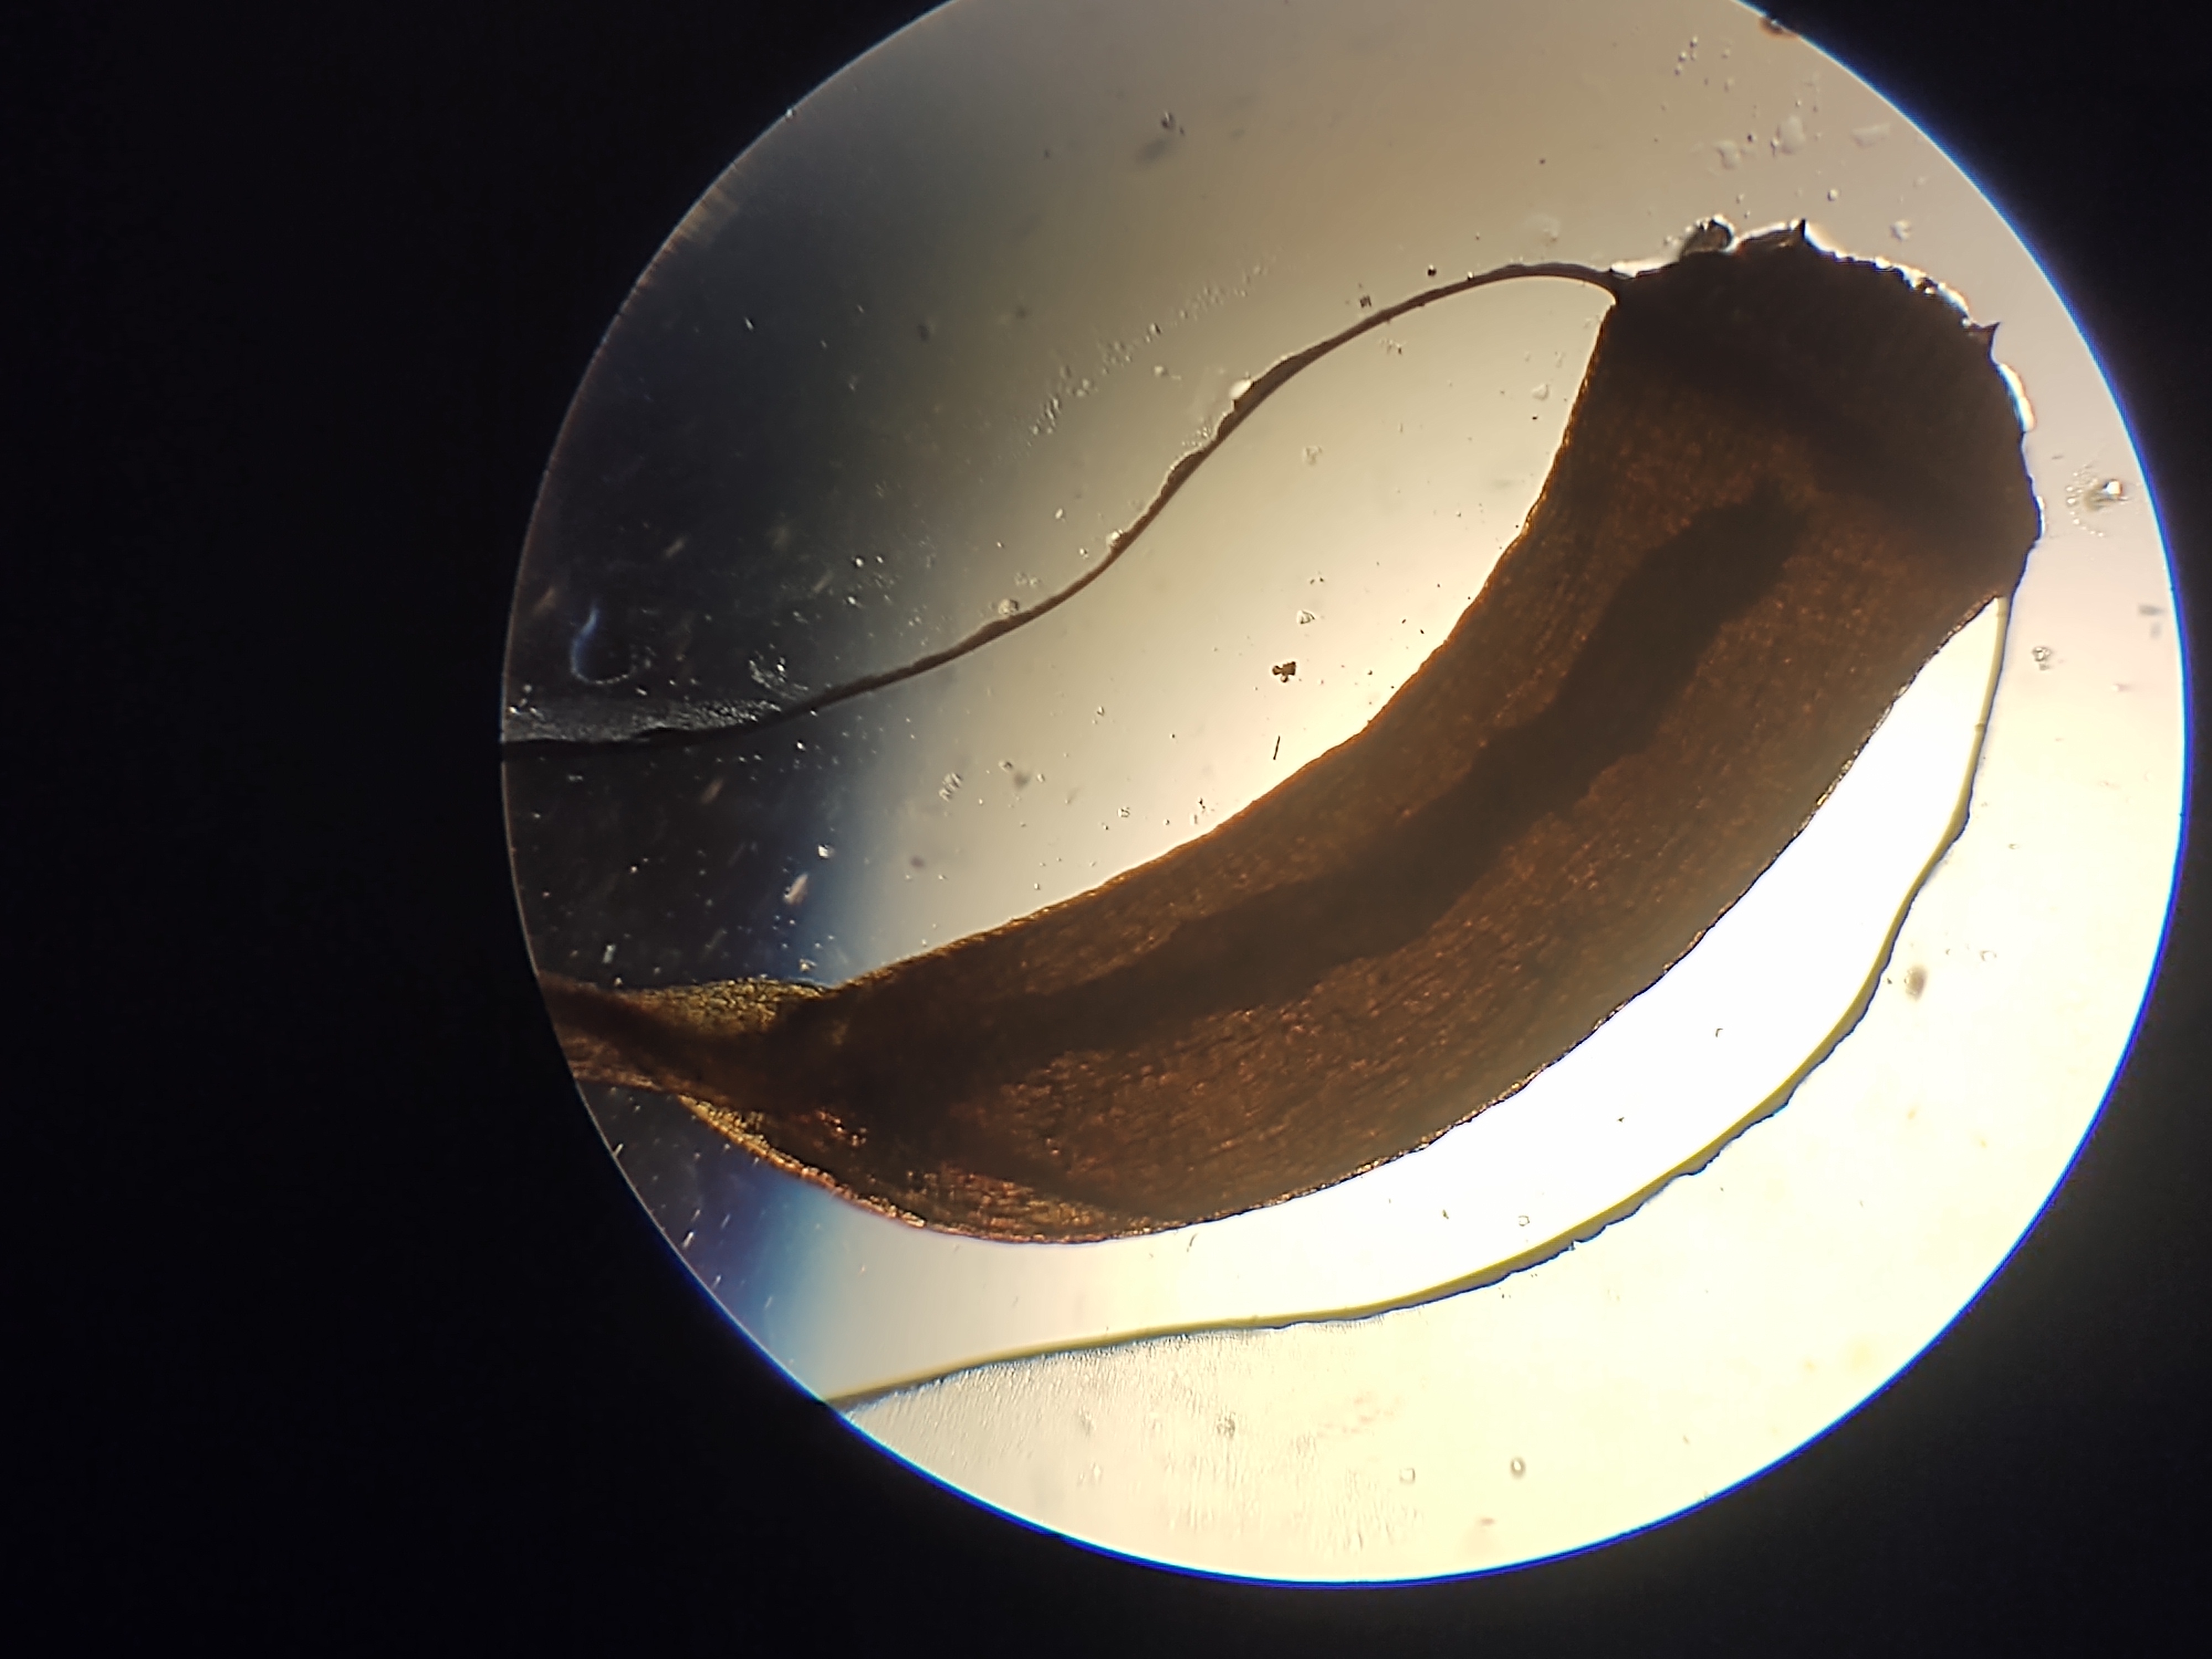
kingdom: Plantae
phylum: Bryophyta
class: Polytrichopsida
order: Polytrichales
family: Polytrichaceae
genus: Atrichum
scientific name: Atrichum undulatum
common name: Bølget katrinemos
